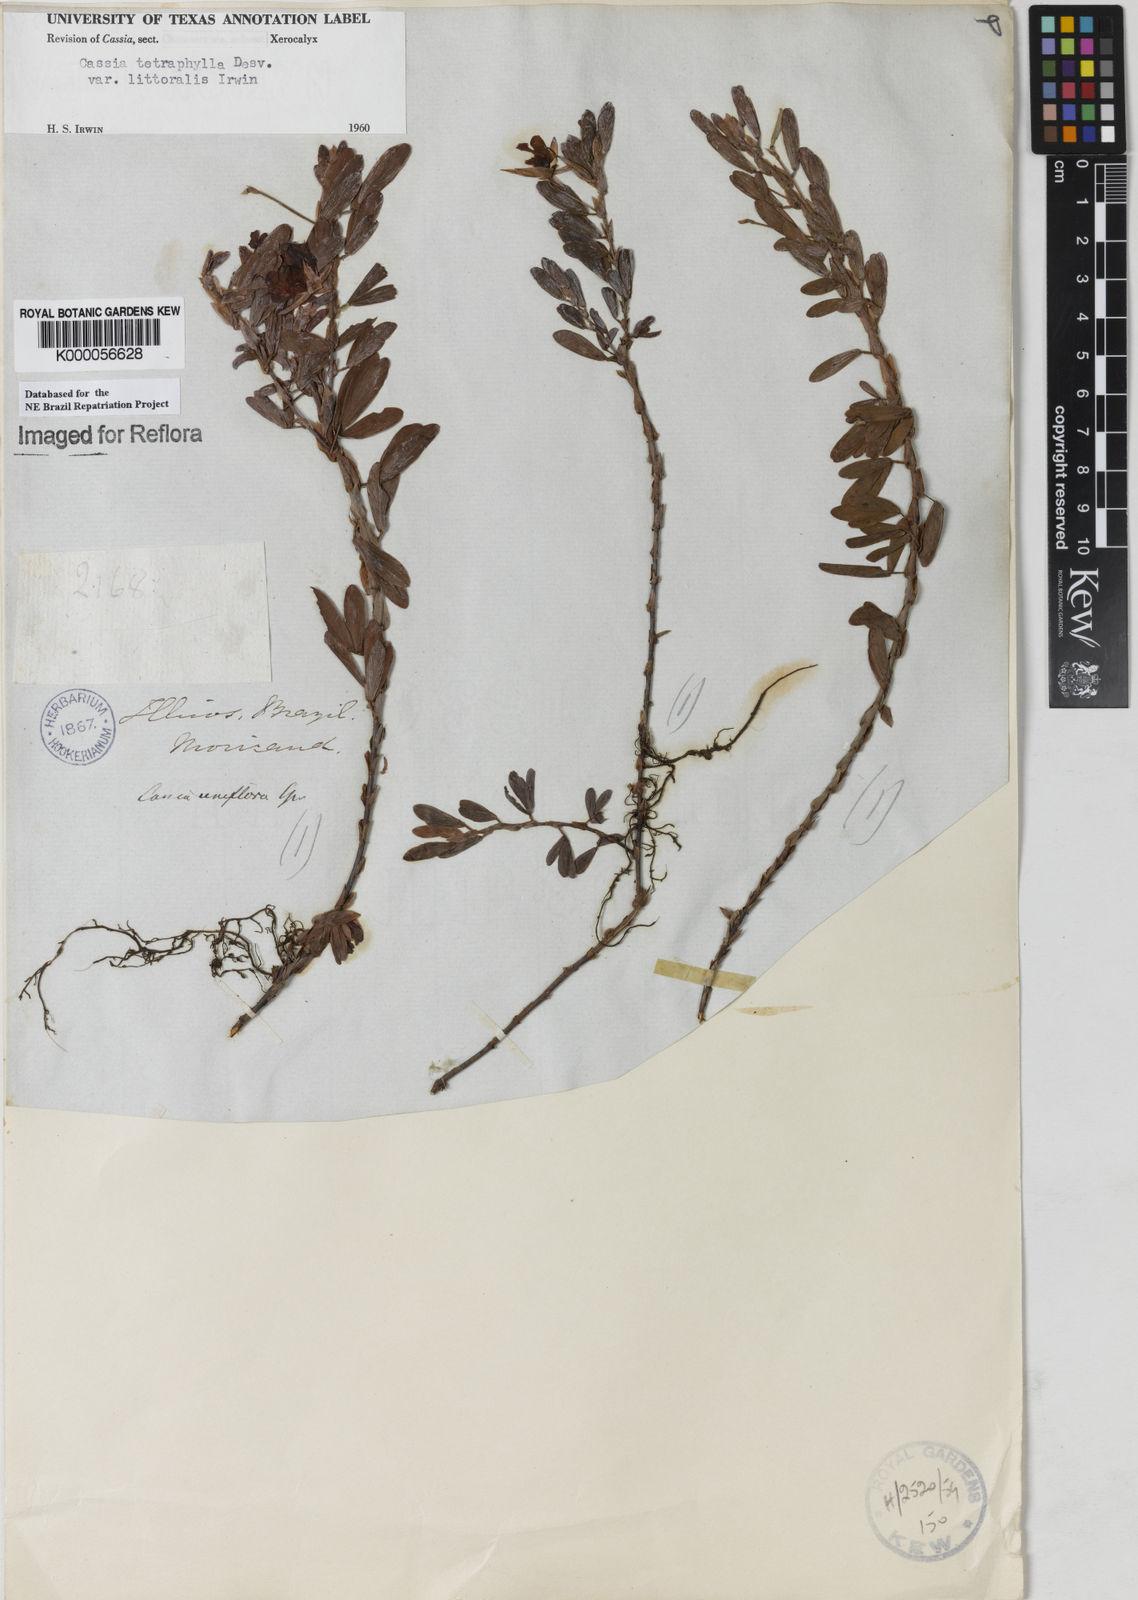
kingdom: Plantae
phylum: Tracheophyta
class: Magnoliopsida
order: Fabales
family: Fabaceae
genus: Chamaecrista
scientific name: Chamaecrista desvauxii
